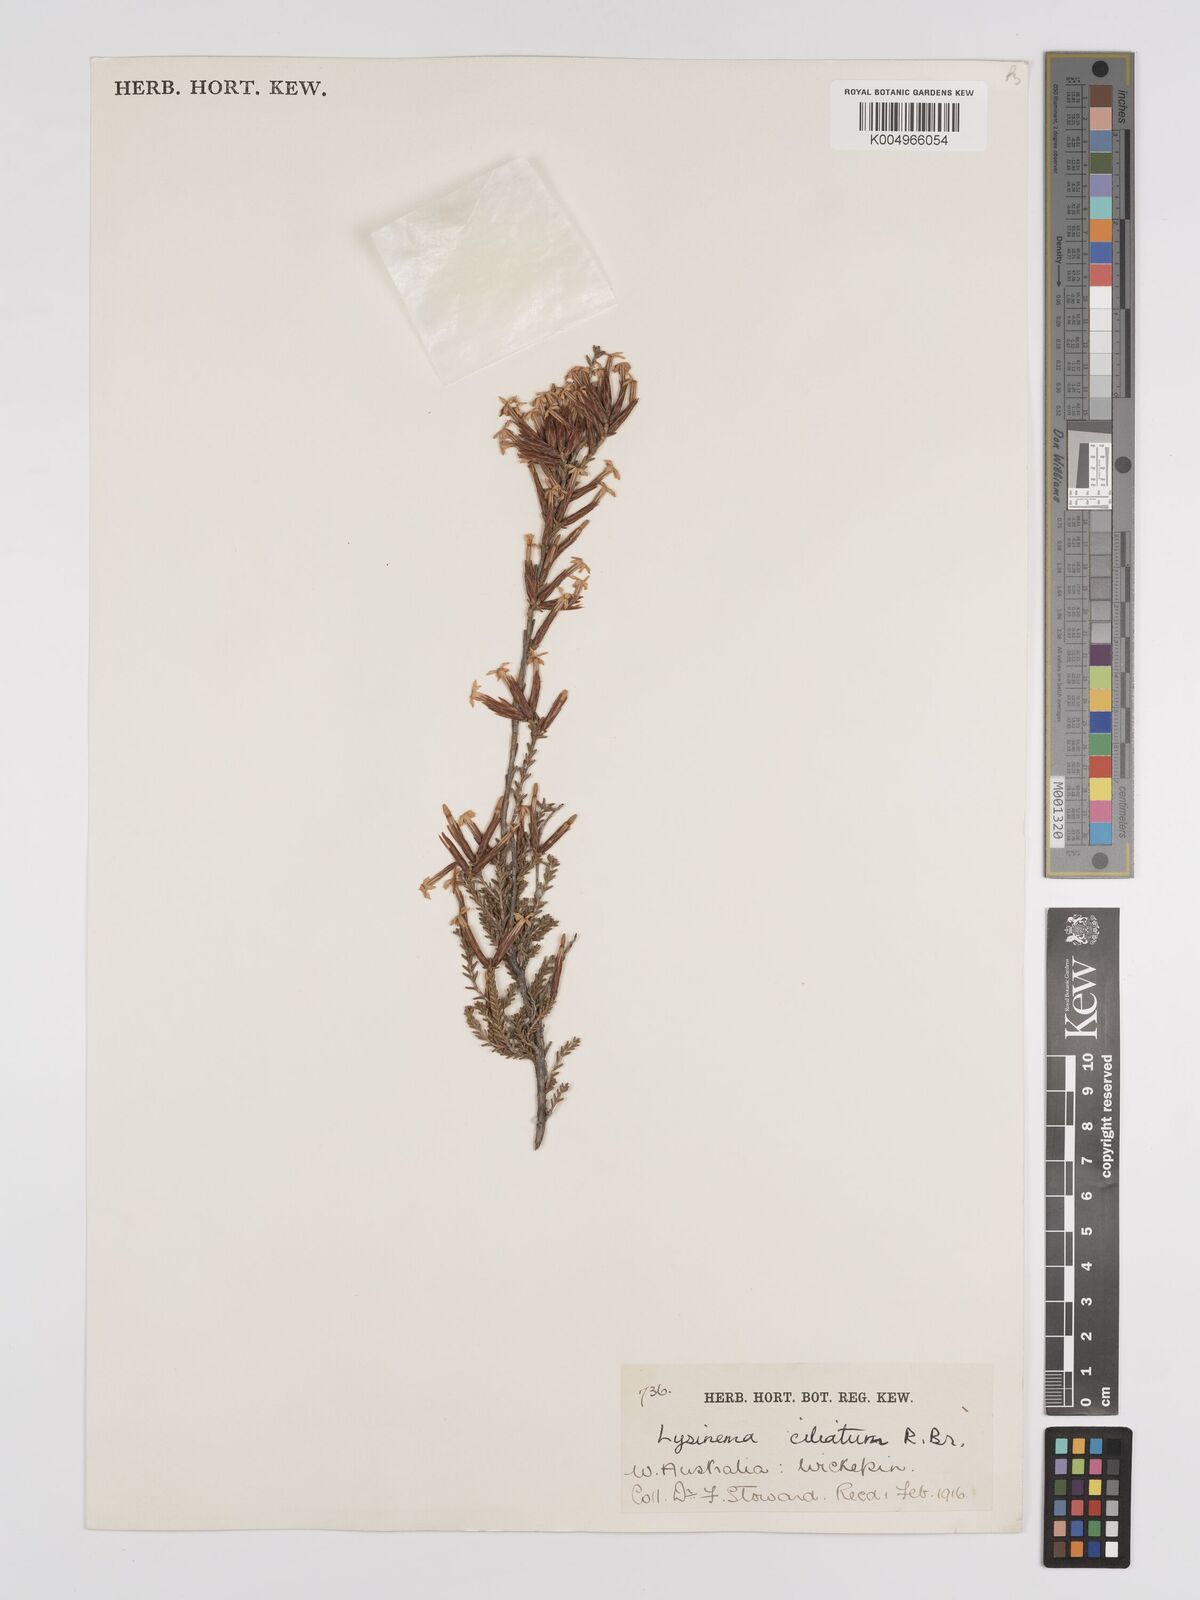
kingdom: Plantae
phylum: Tracheophyta
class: Magnoliopsida
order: Ericales
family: Ericaceae
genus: Lysinema
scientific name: Lysinema ciliatum
